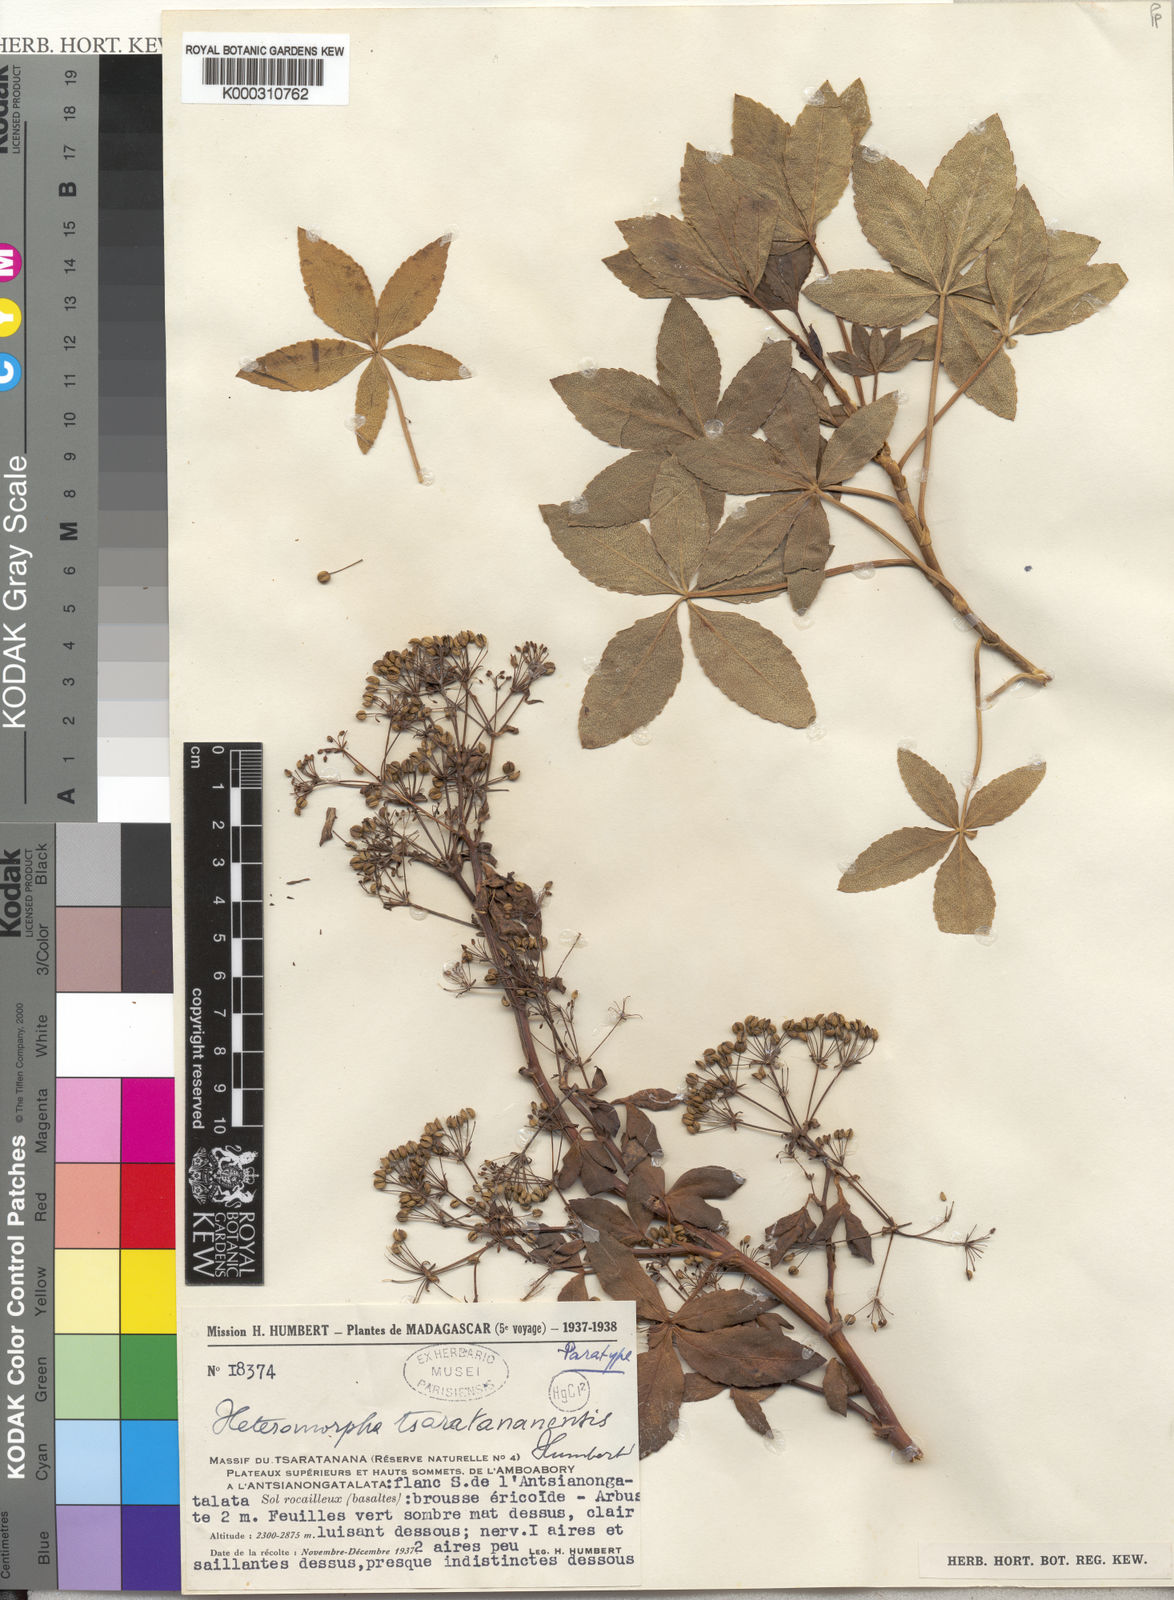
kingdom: Plantae
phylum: Tracheophyta
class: Magnoliopsida
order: Apiales
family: Apiaceae
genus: Andriana
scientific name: Andriana coursii
